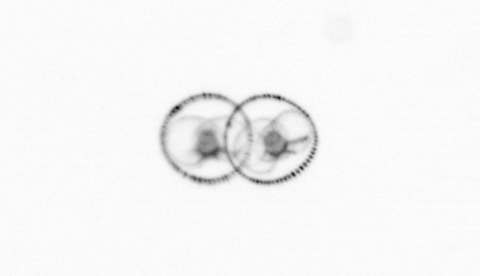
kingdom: Chromista
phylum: Myzozoa
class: Dinophyceae
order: Noctilucales
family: Noctilucaceae
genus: Noctiluca
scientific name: Noctiluca scintillans
